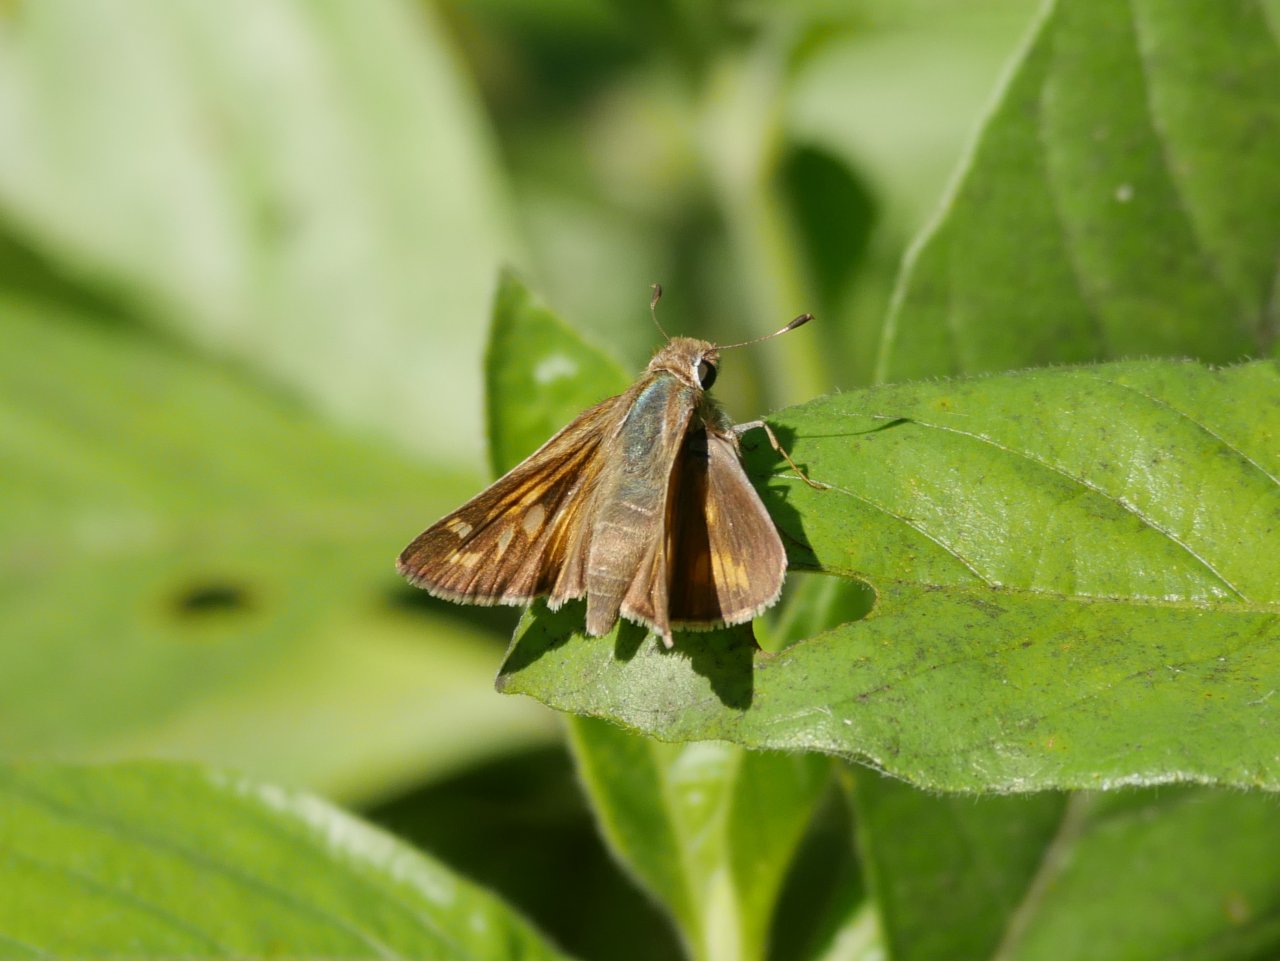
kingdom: Animalia
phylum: Arthropoda
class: Insecta
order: Lepidoptera
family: Hesperiidae
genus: Atalopedes
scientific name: Atalopedes campestris
